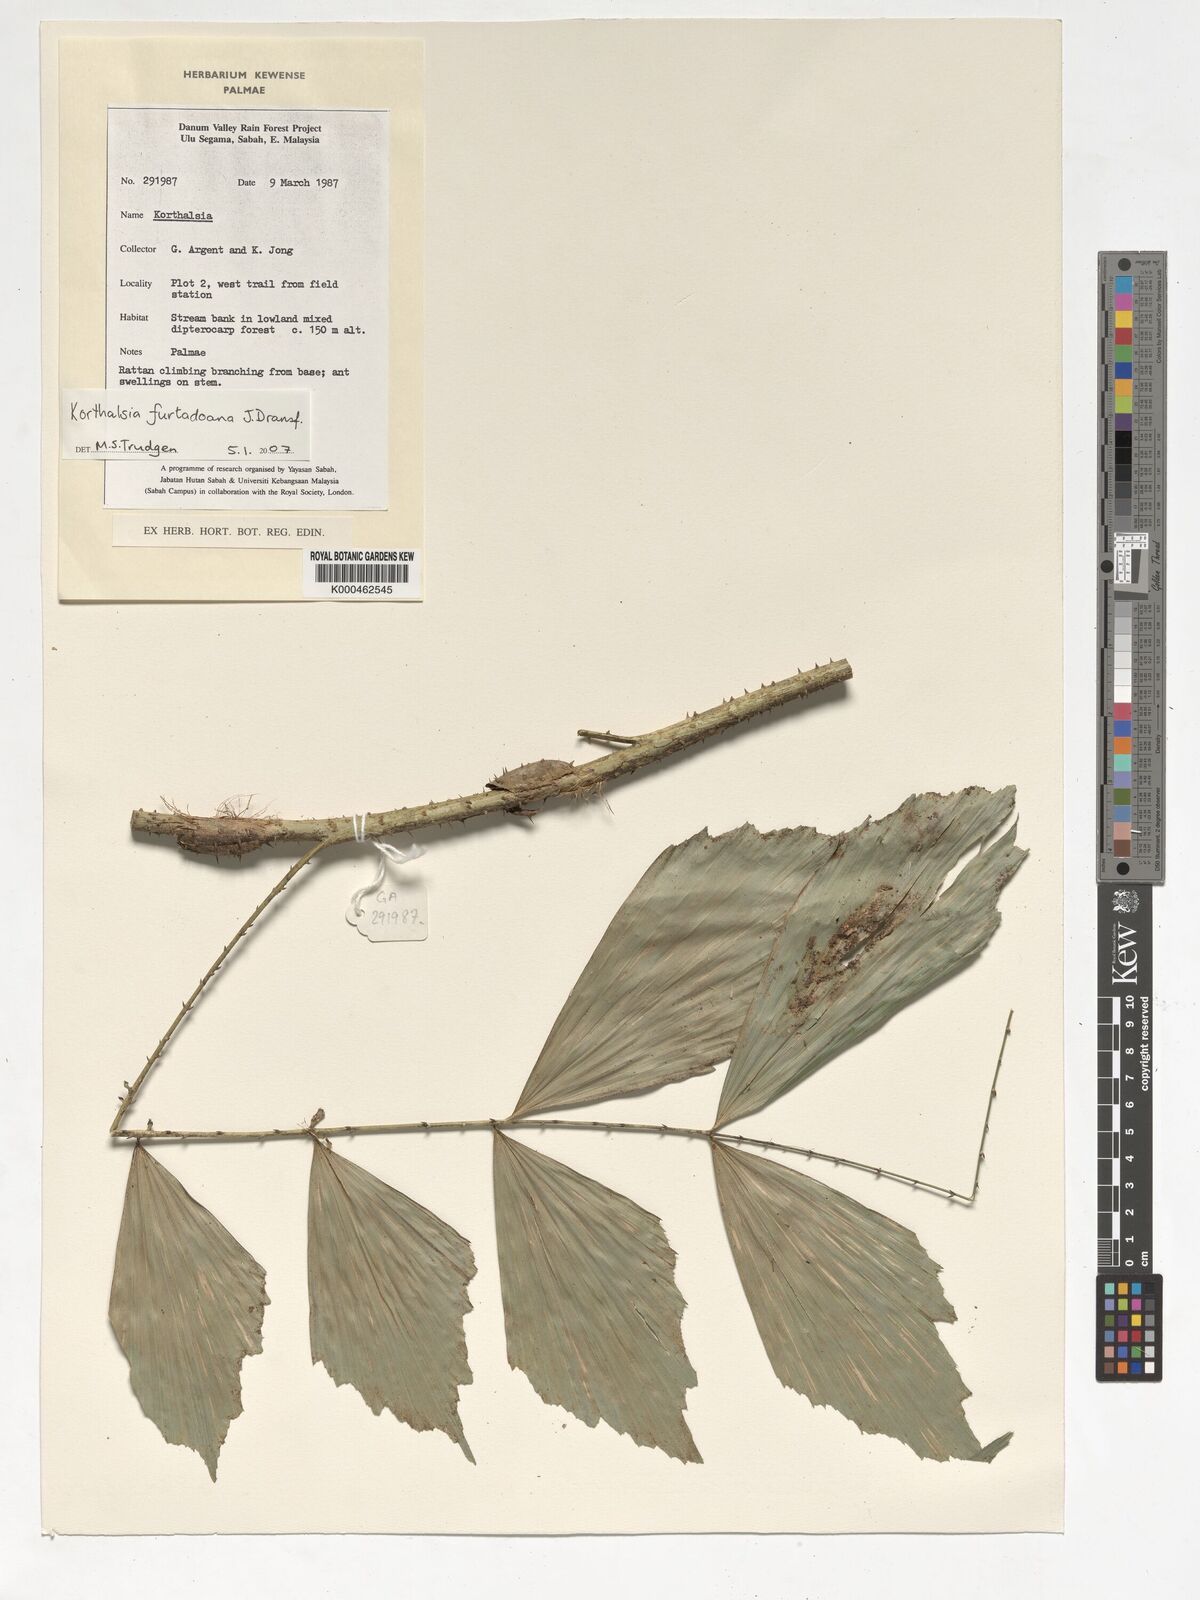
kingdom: Plantae
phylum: Tracheophyta
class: Liliopsida
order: Arecales
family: Arecaceae
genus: Korthalsia
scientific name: Korthalsia furtadoana
